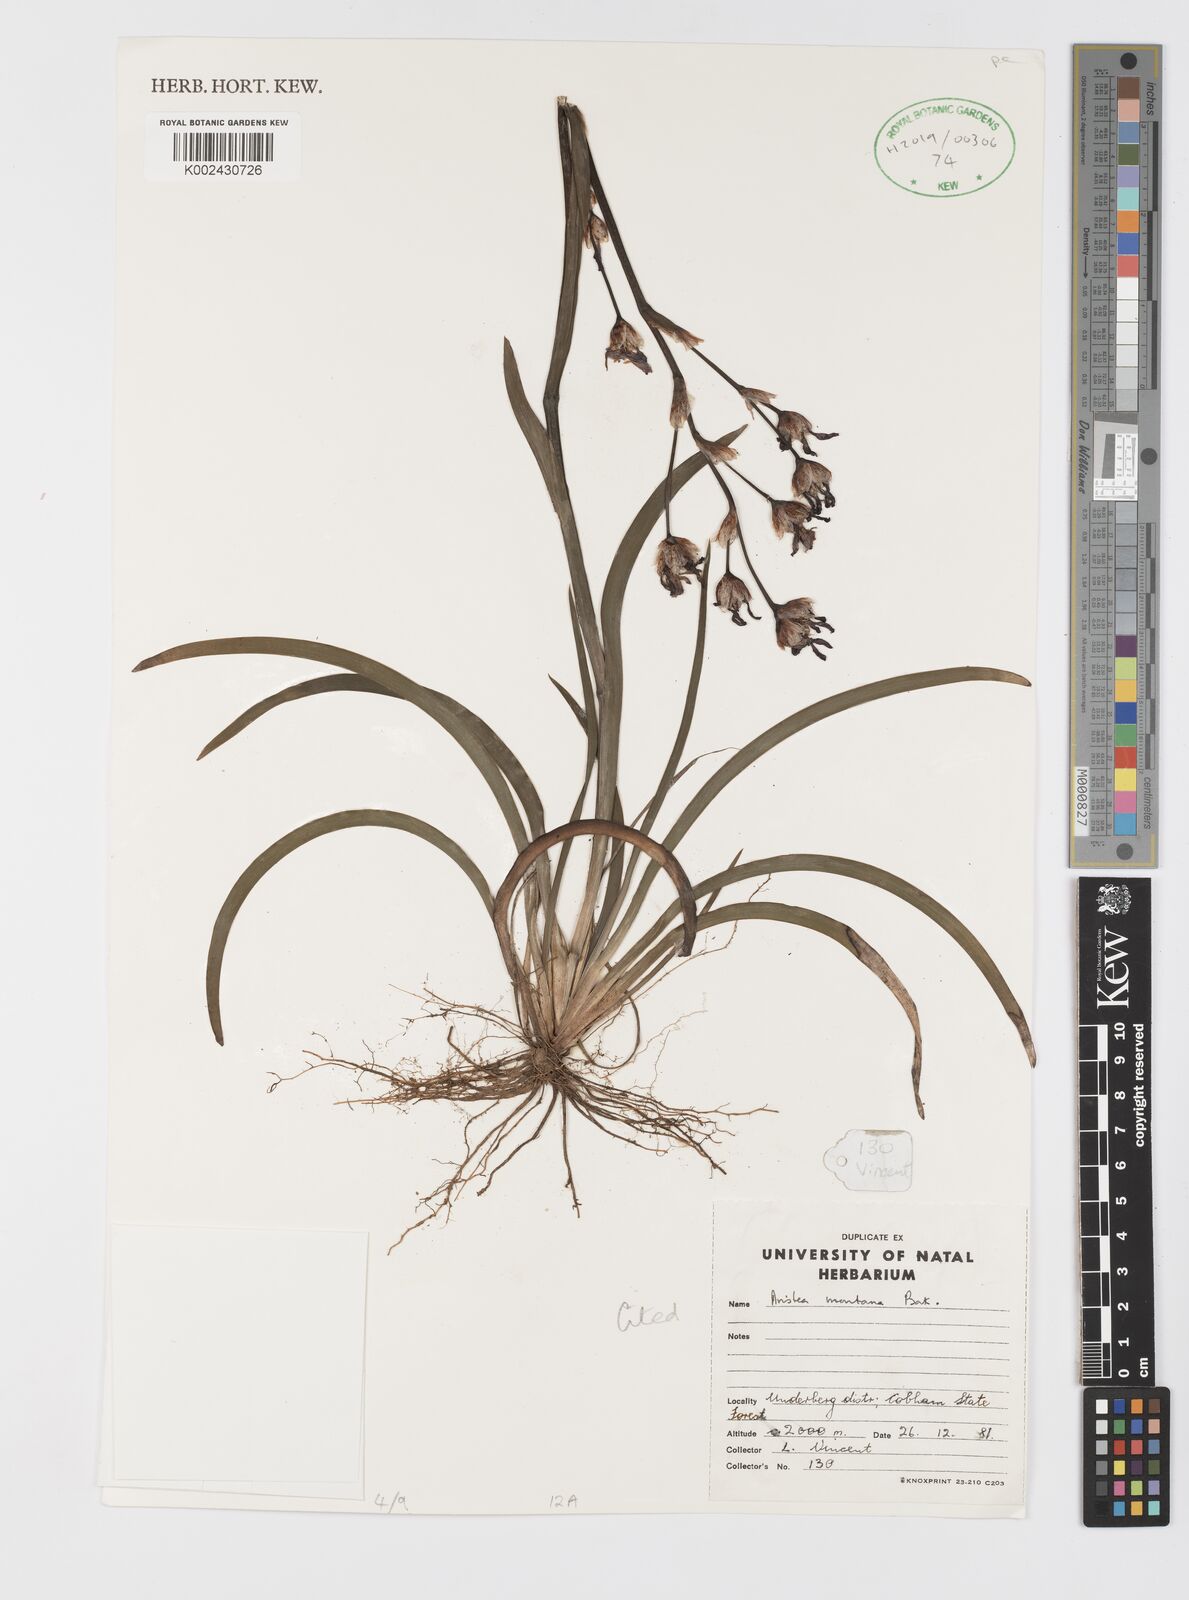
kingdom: Plantae
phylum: Tracheophyta
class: Liliopsida
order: Asparagales
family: Iridaceae
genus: Aristea
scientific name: Aristea montana
